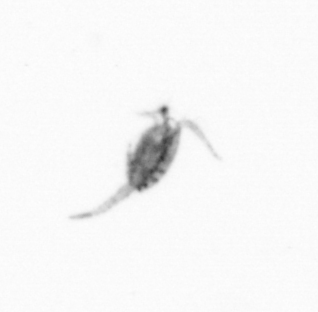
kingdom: Animalia
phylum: Arthropoda
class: Copepoda
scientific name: Copepoda
